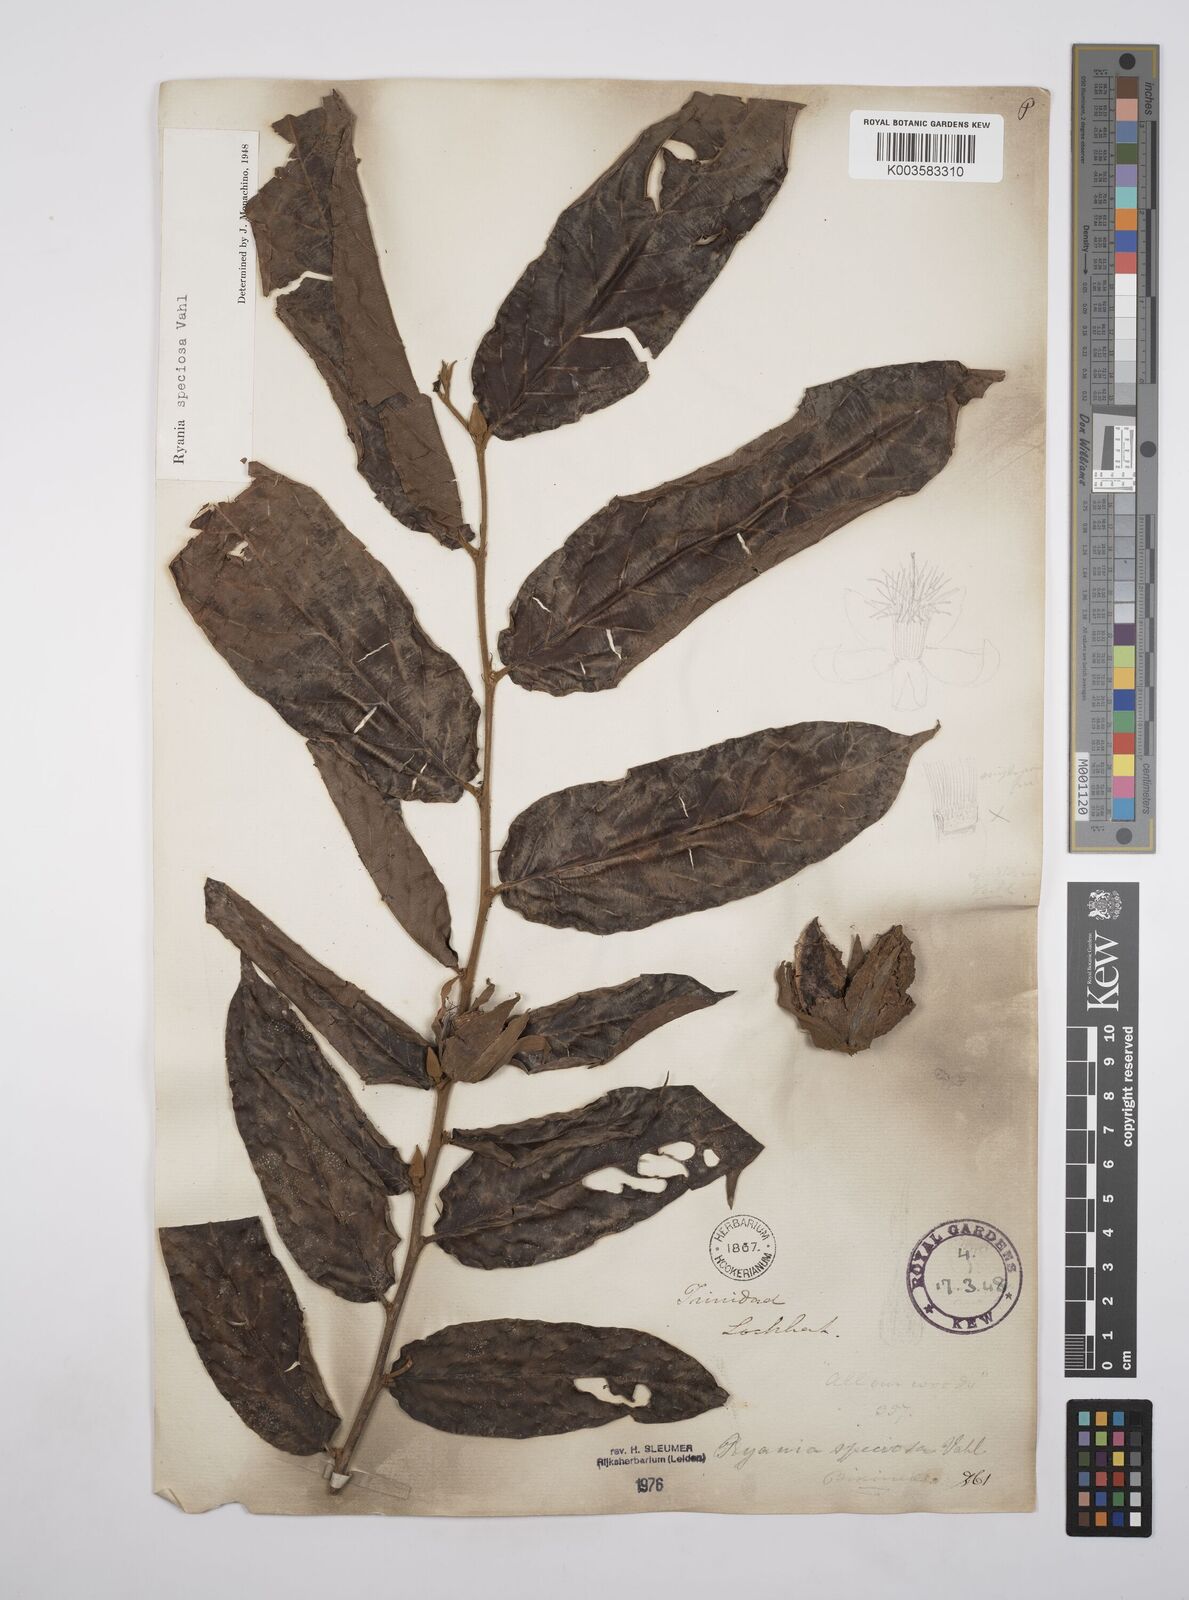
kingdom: Plantae
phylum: Tracheophyta
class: Magnoliopsida
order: Malpighiales
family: Salicaceae
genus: Ryania
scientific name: Ryania speciosa
